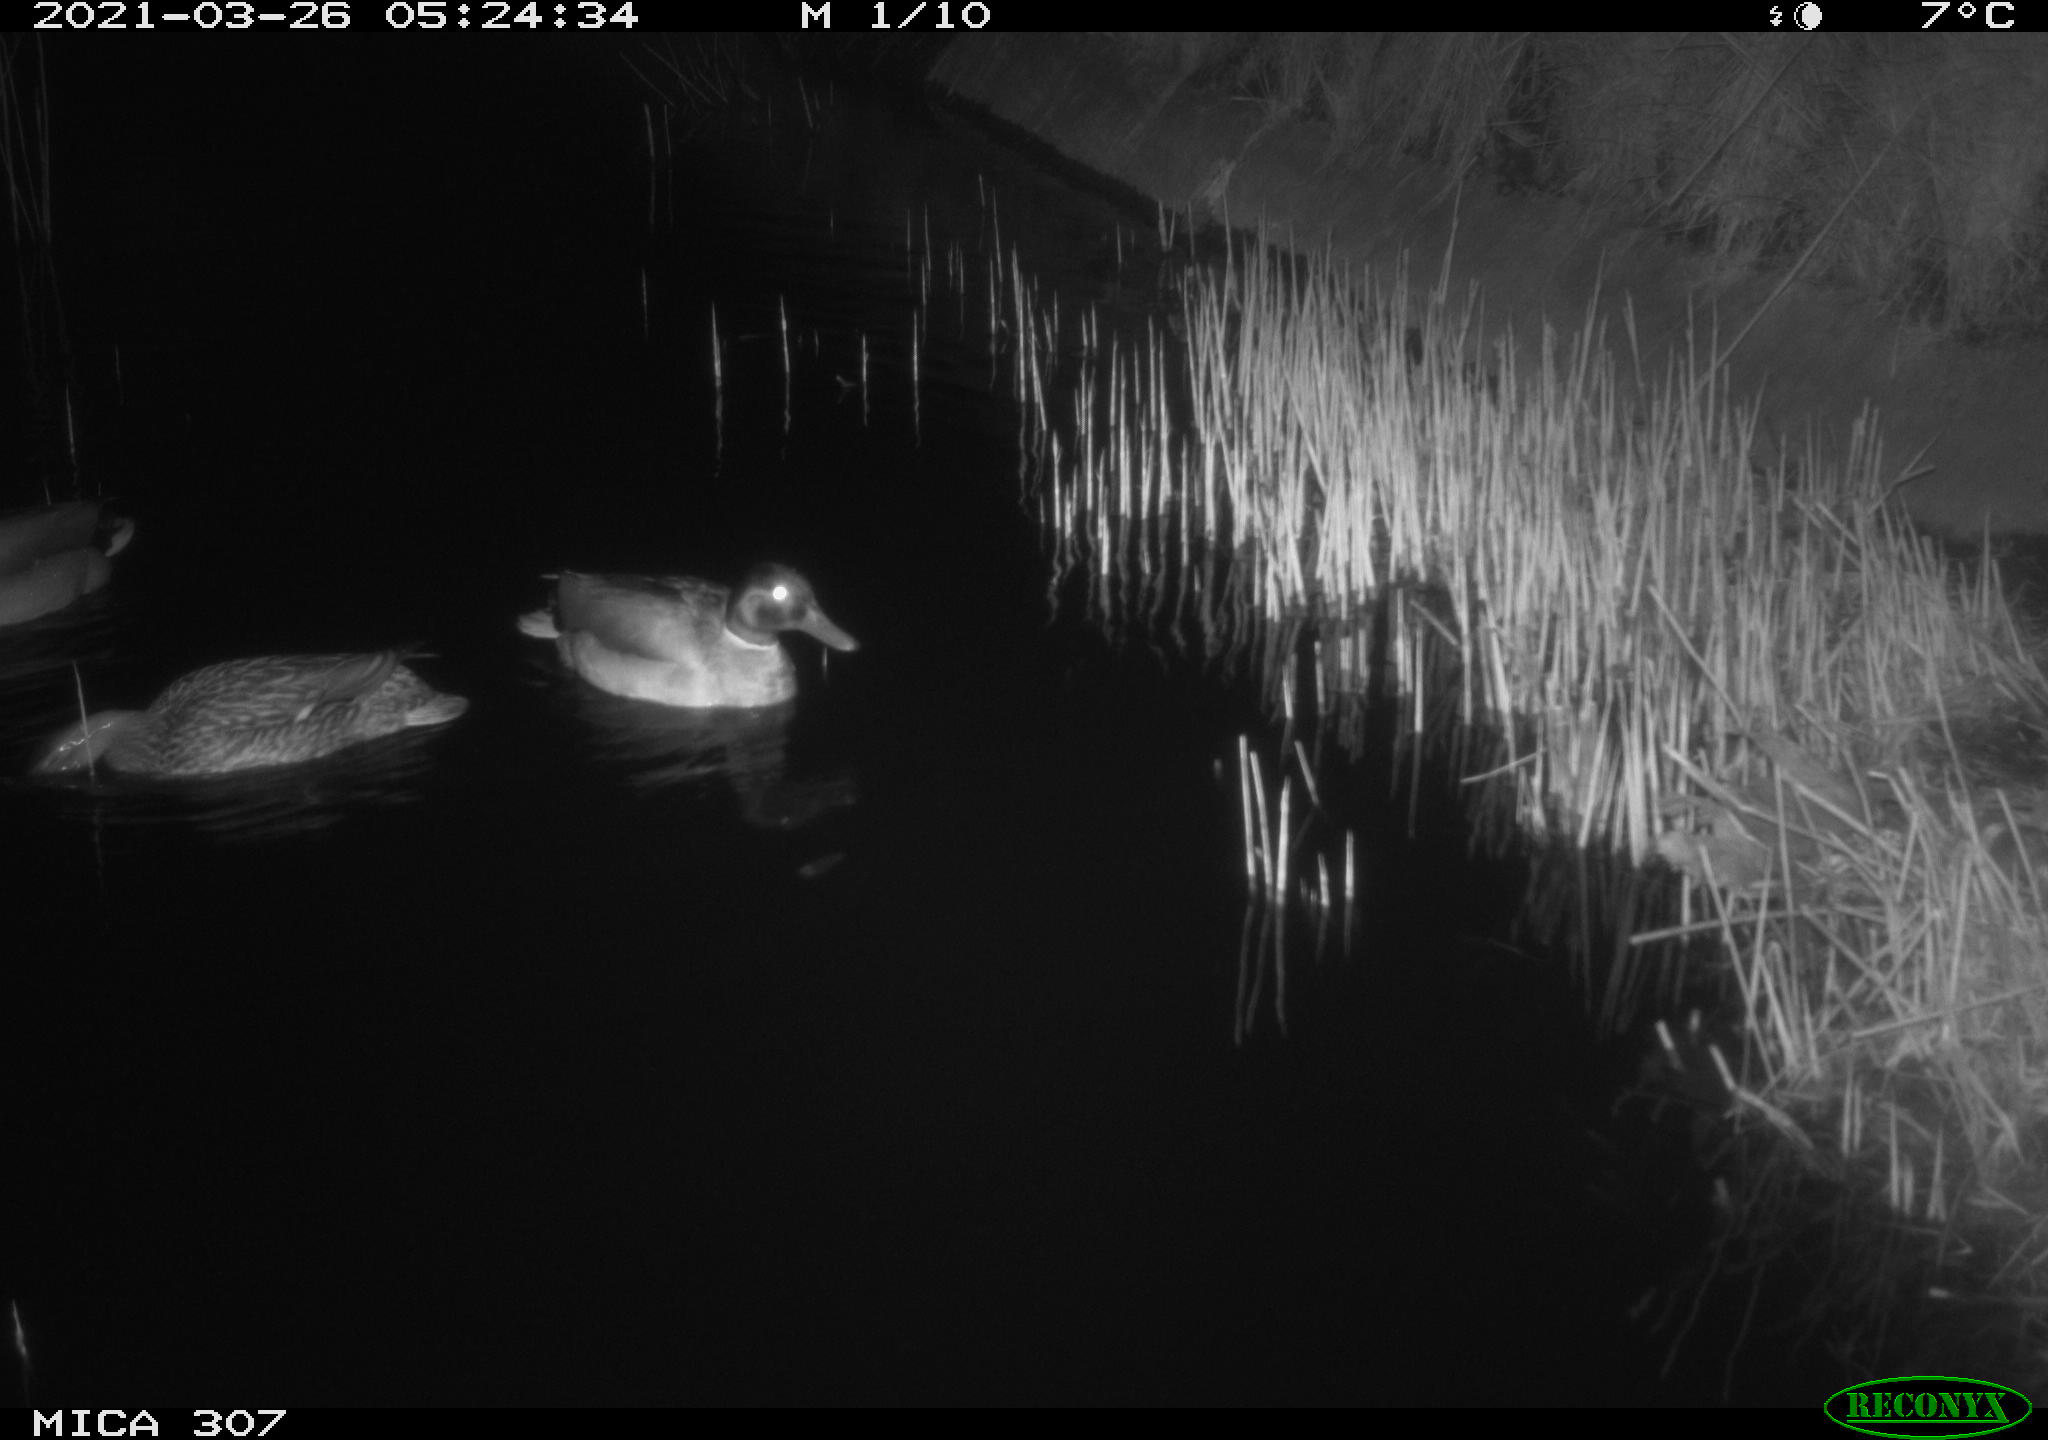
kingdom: Animalia
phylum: Chordata
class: Aves
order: Anseriformes
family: Anatidae
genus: Anas
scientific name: Anas platyrhynchos
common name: Mallard
